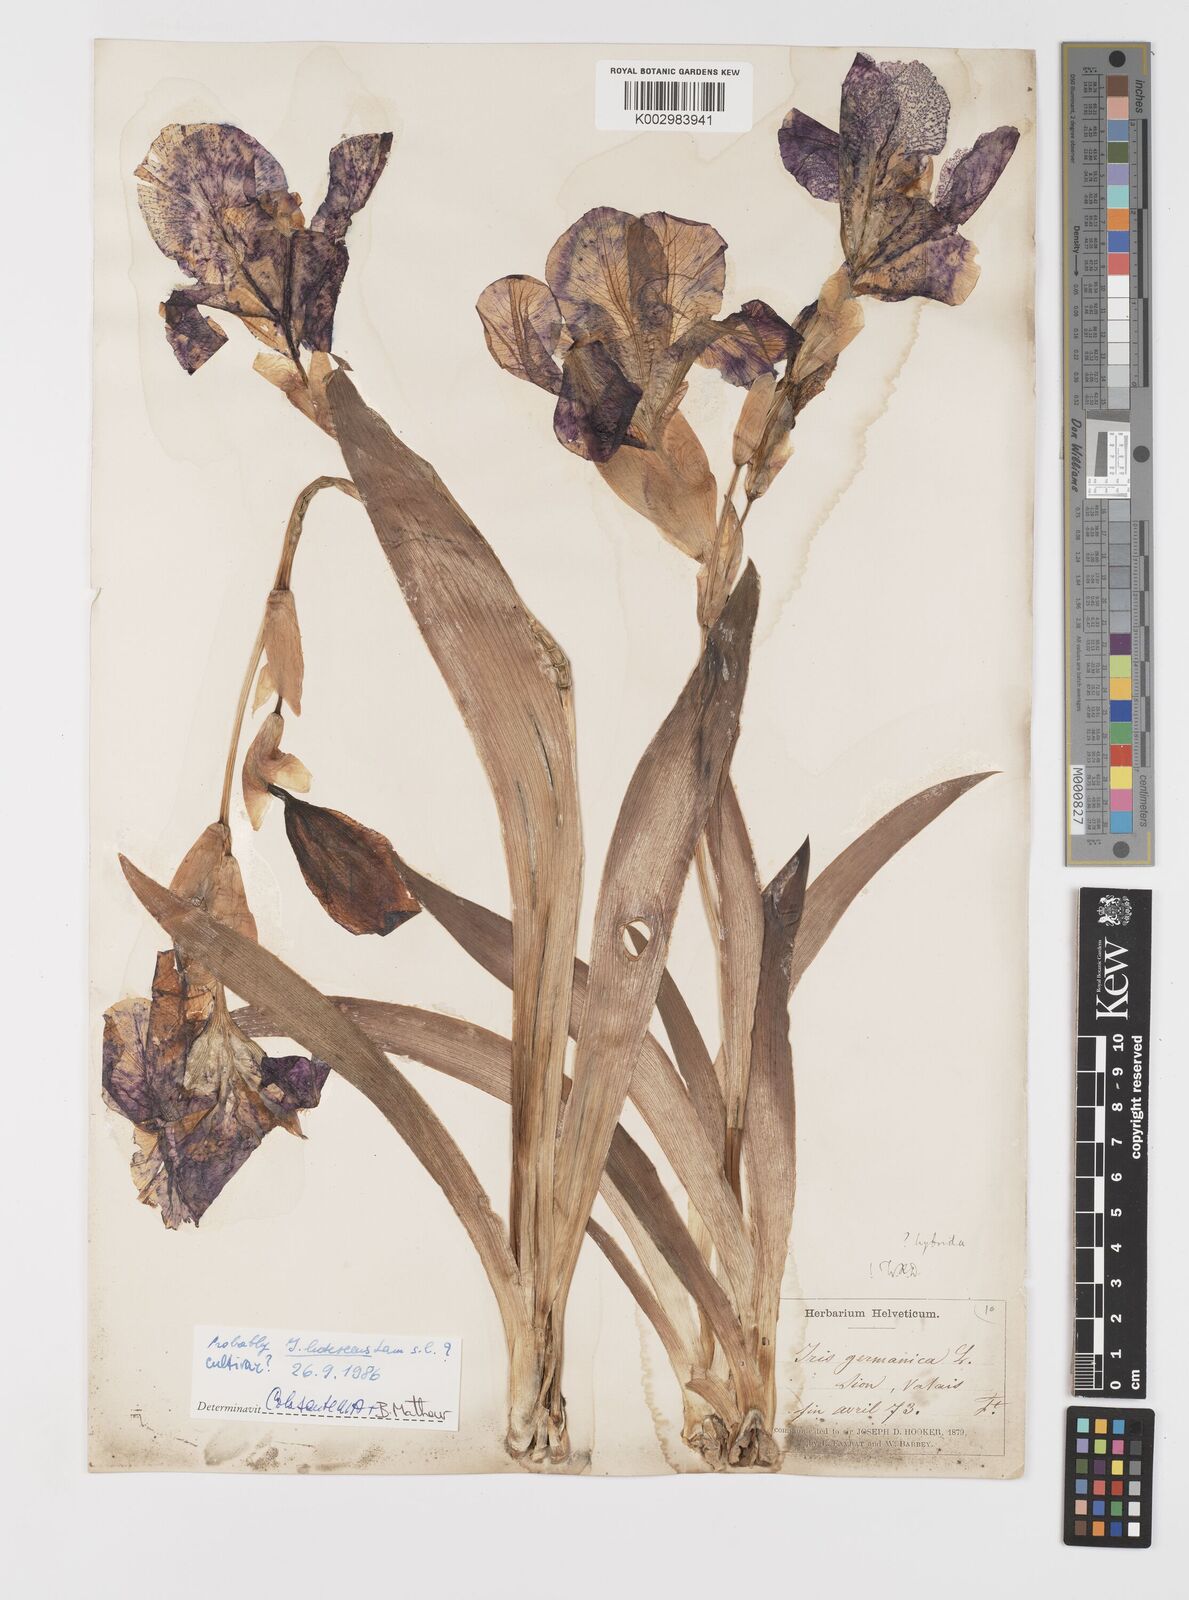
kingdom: Plantae
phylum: Tracheophyta
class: Liliopsida
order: Asparagales
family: Iridaceae
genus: Iris
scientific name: Iris germanica
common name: German iris
